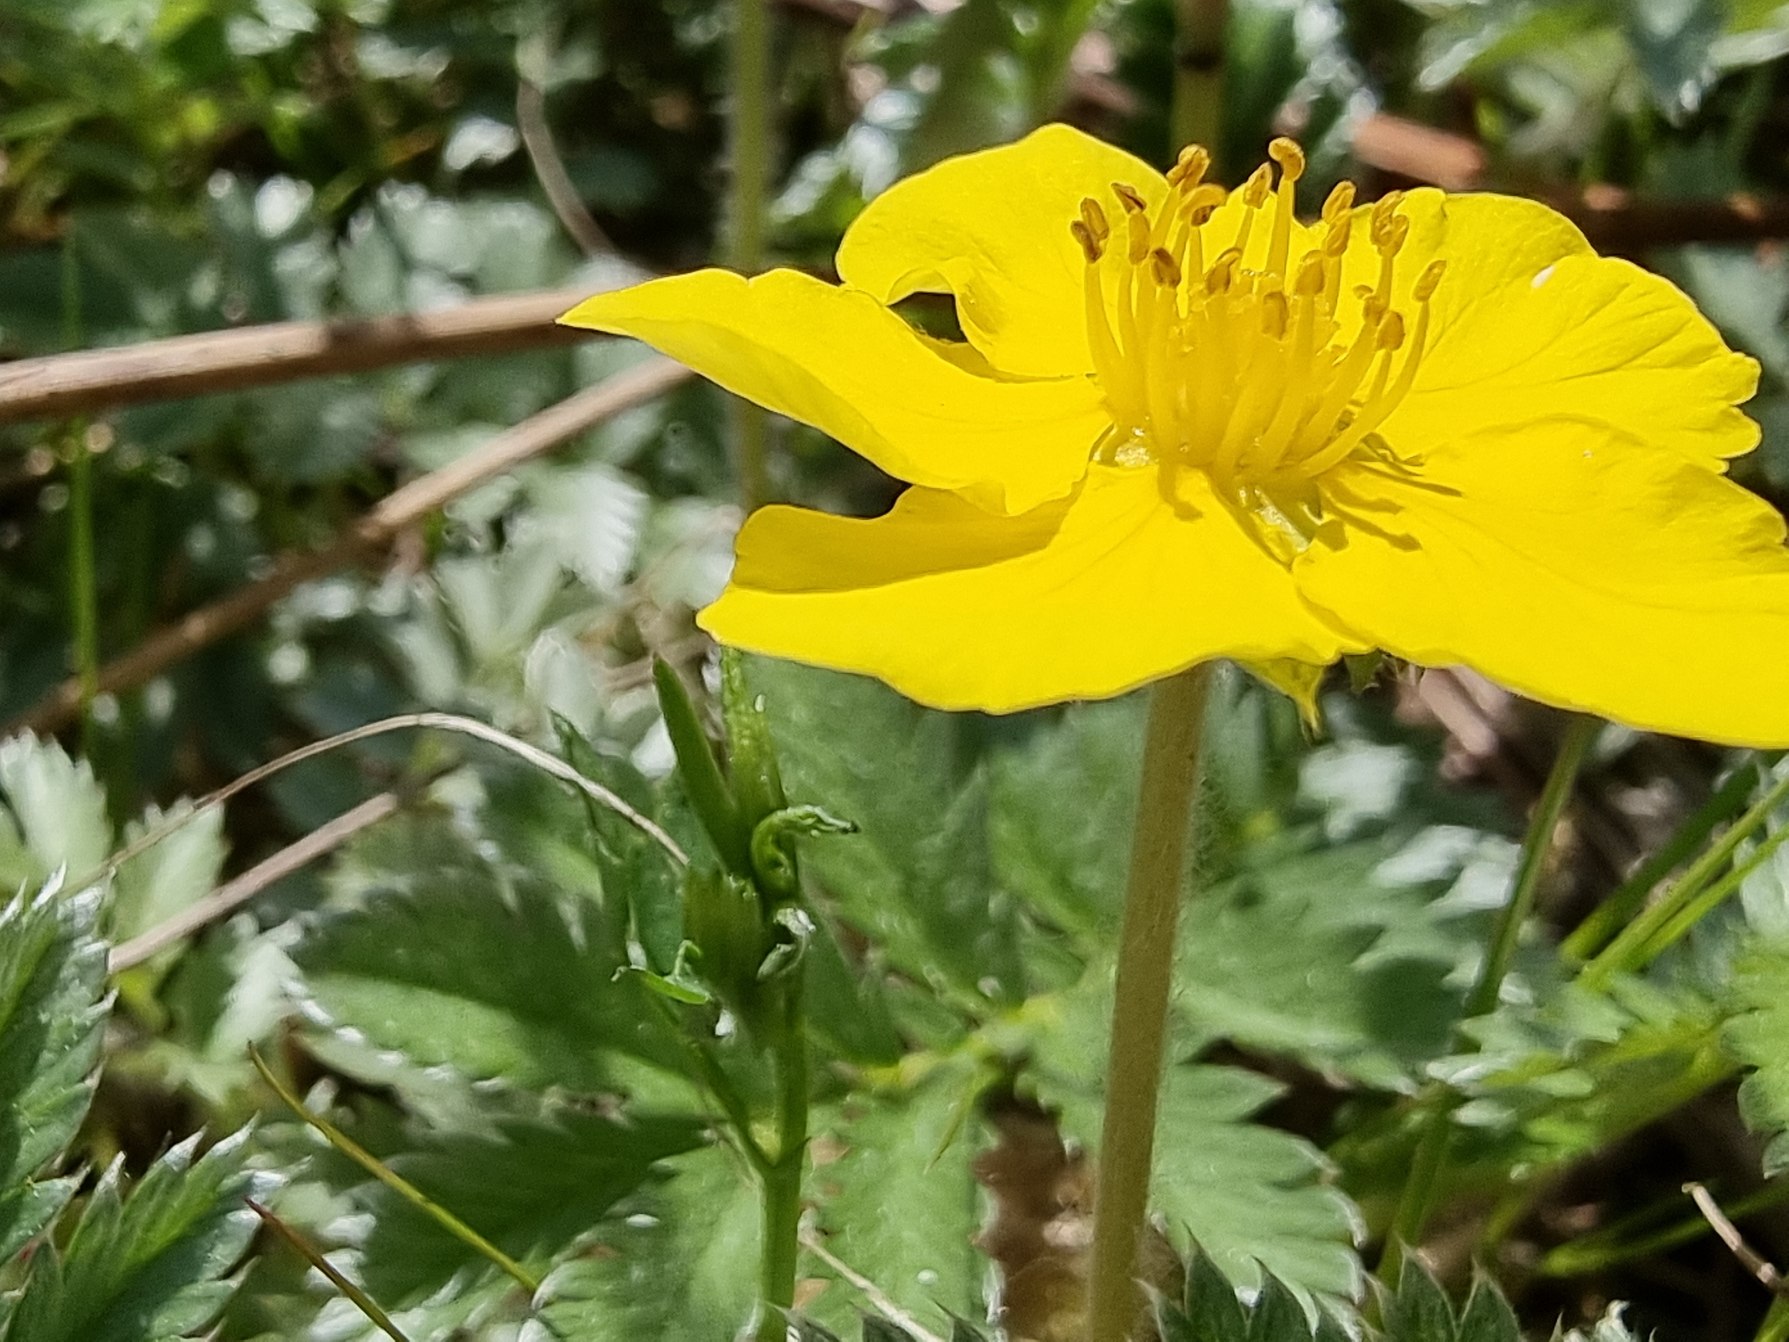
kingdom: Plantae
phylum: Tracheophyta
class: Magnoliopsida
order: Rosales
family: Rosaceae
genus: Argentina
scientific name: Argentina anserina
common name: Gåsepotentil
